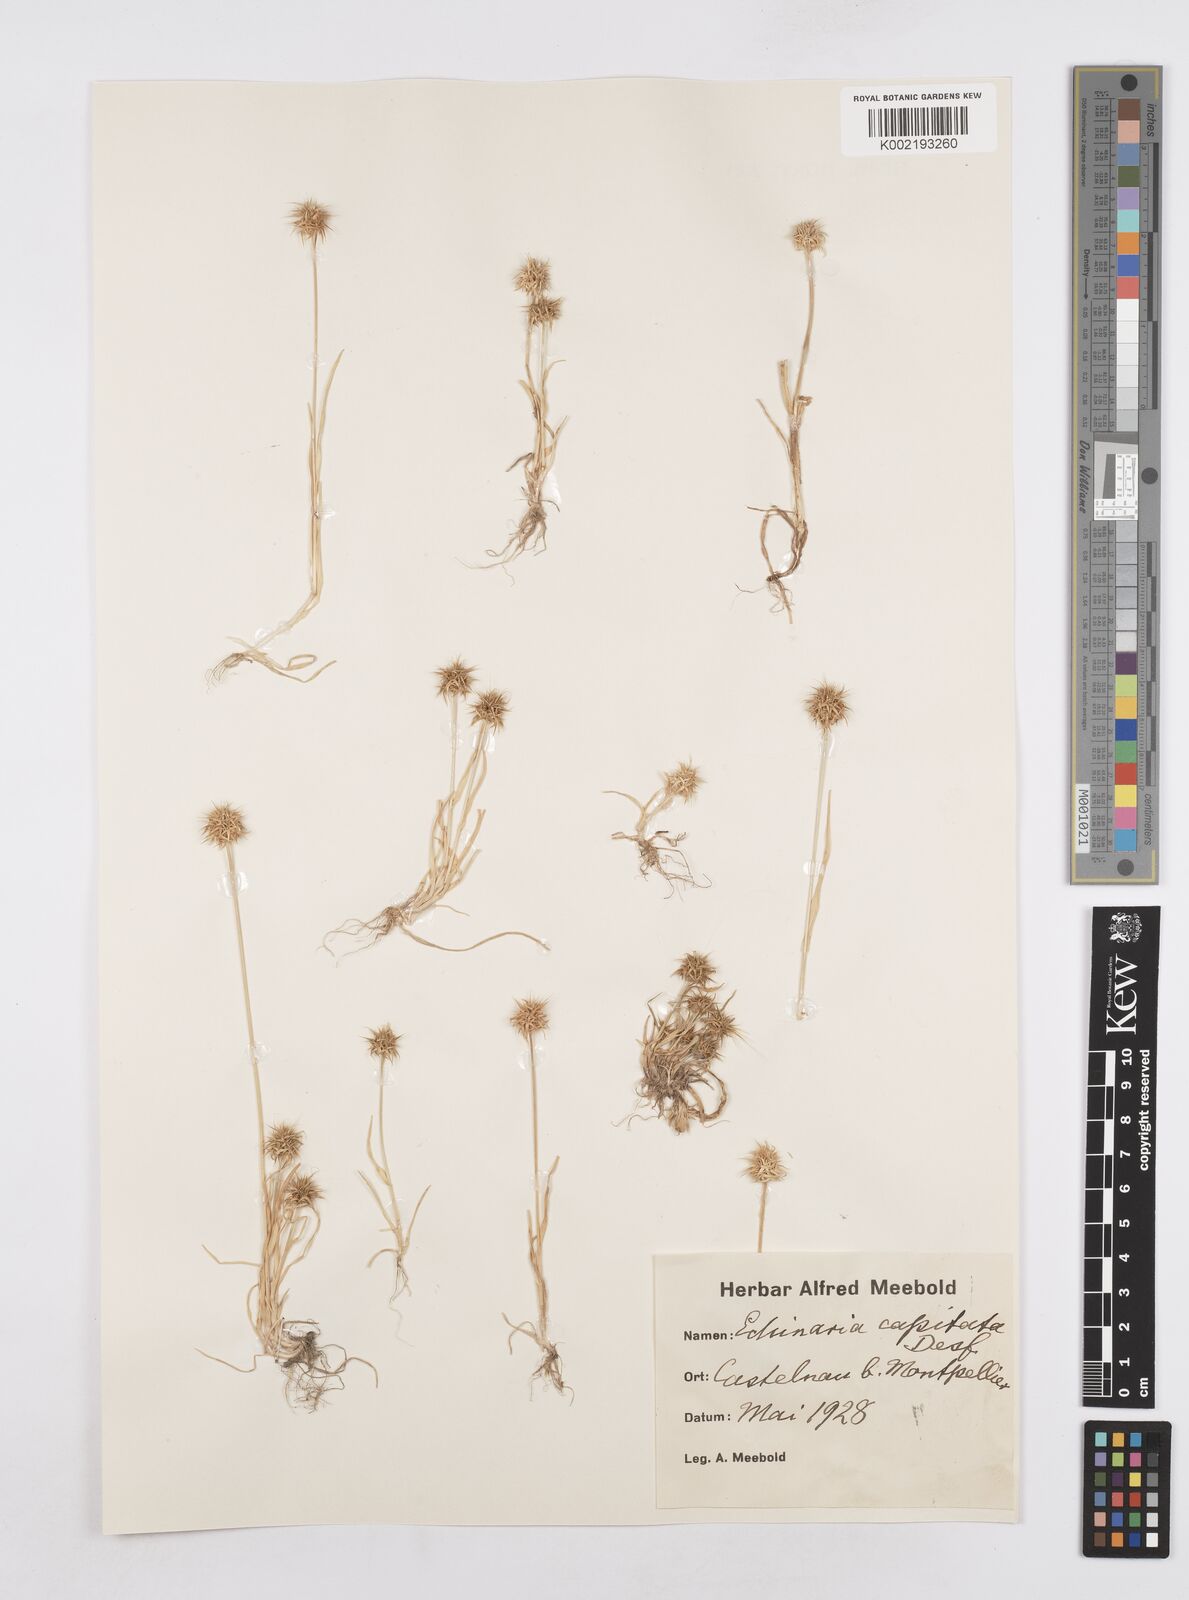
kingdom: Plantae
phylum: Tracheophyta
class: Liliopsida
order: Poales
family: Poaceae
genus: Echinaria
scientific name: Echinaria capitata
